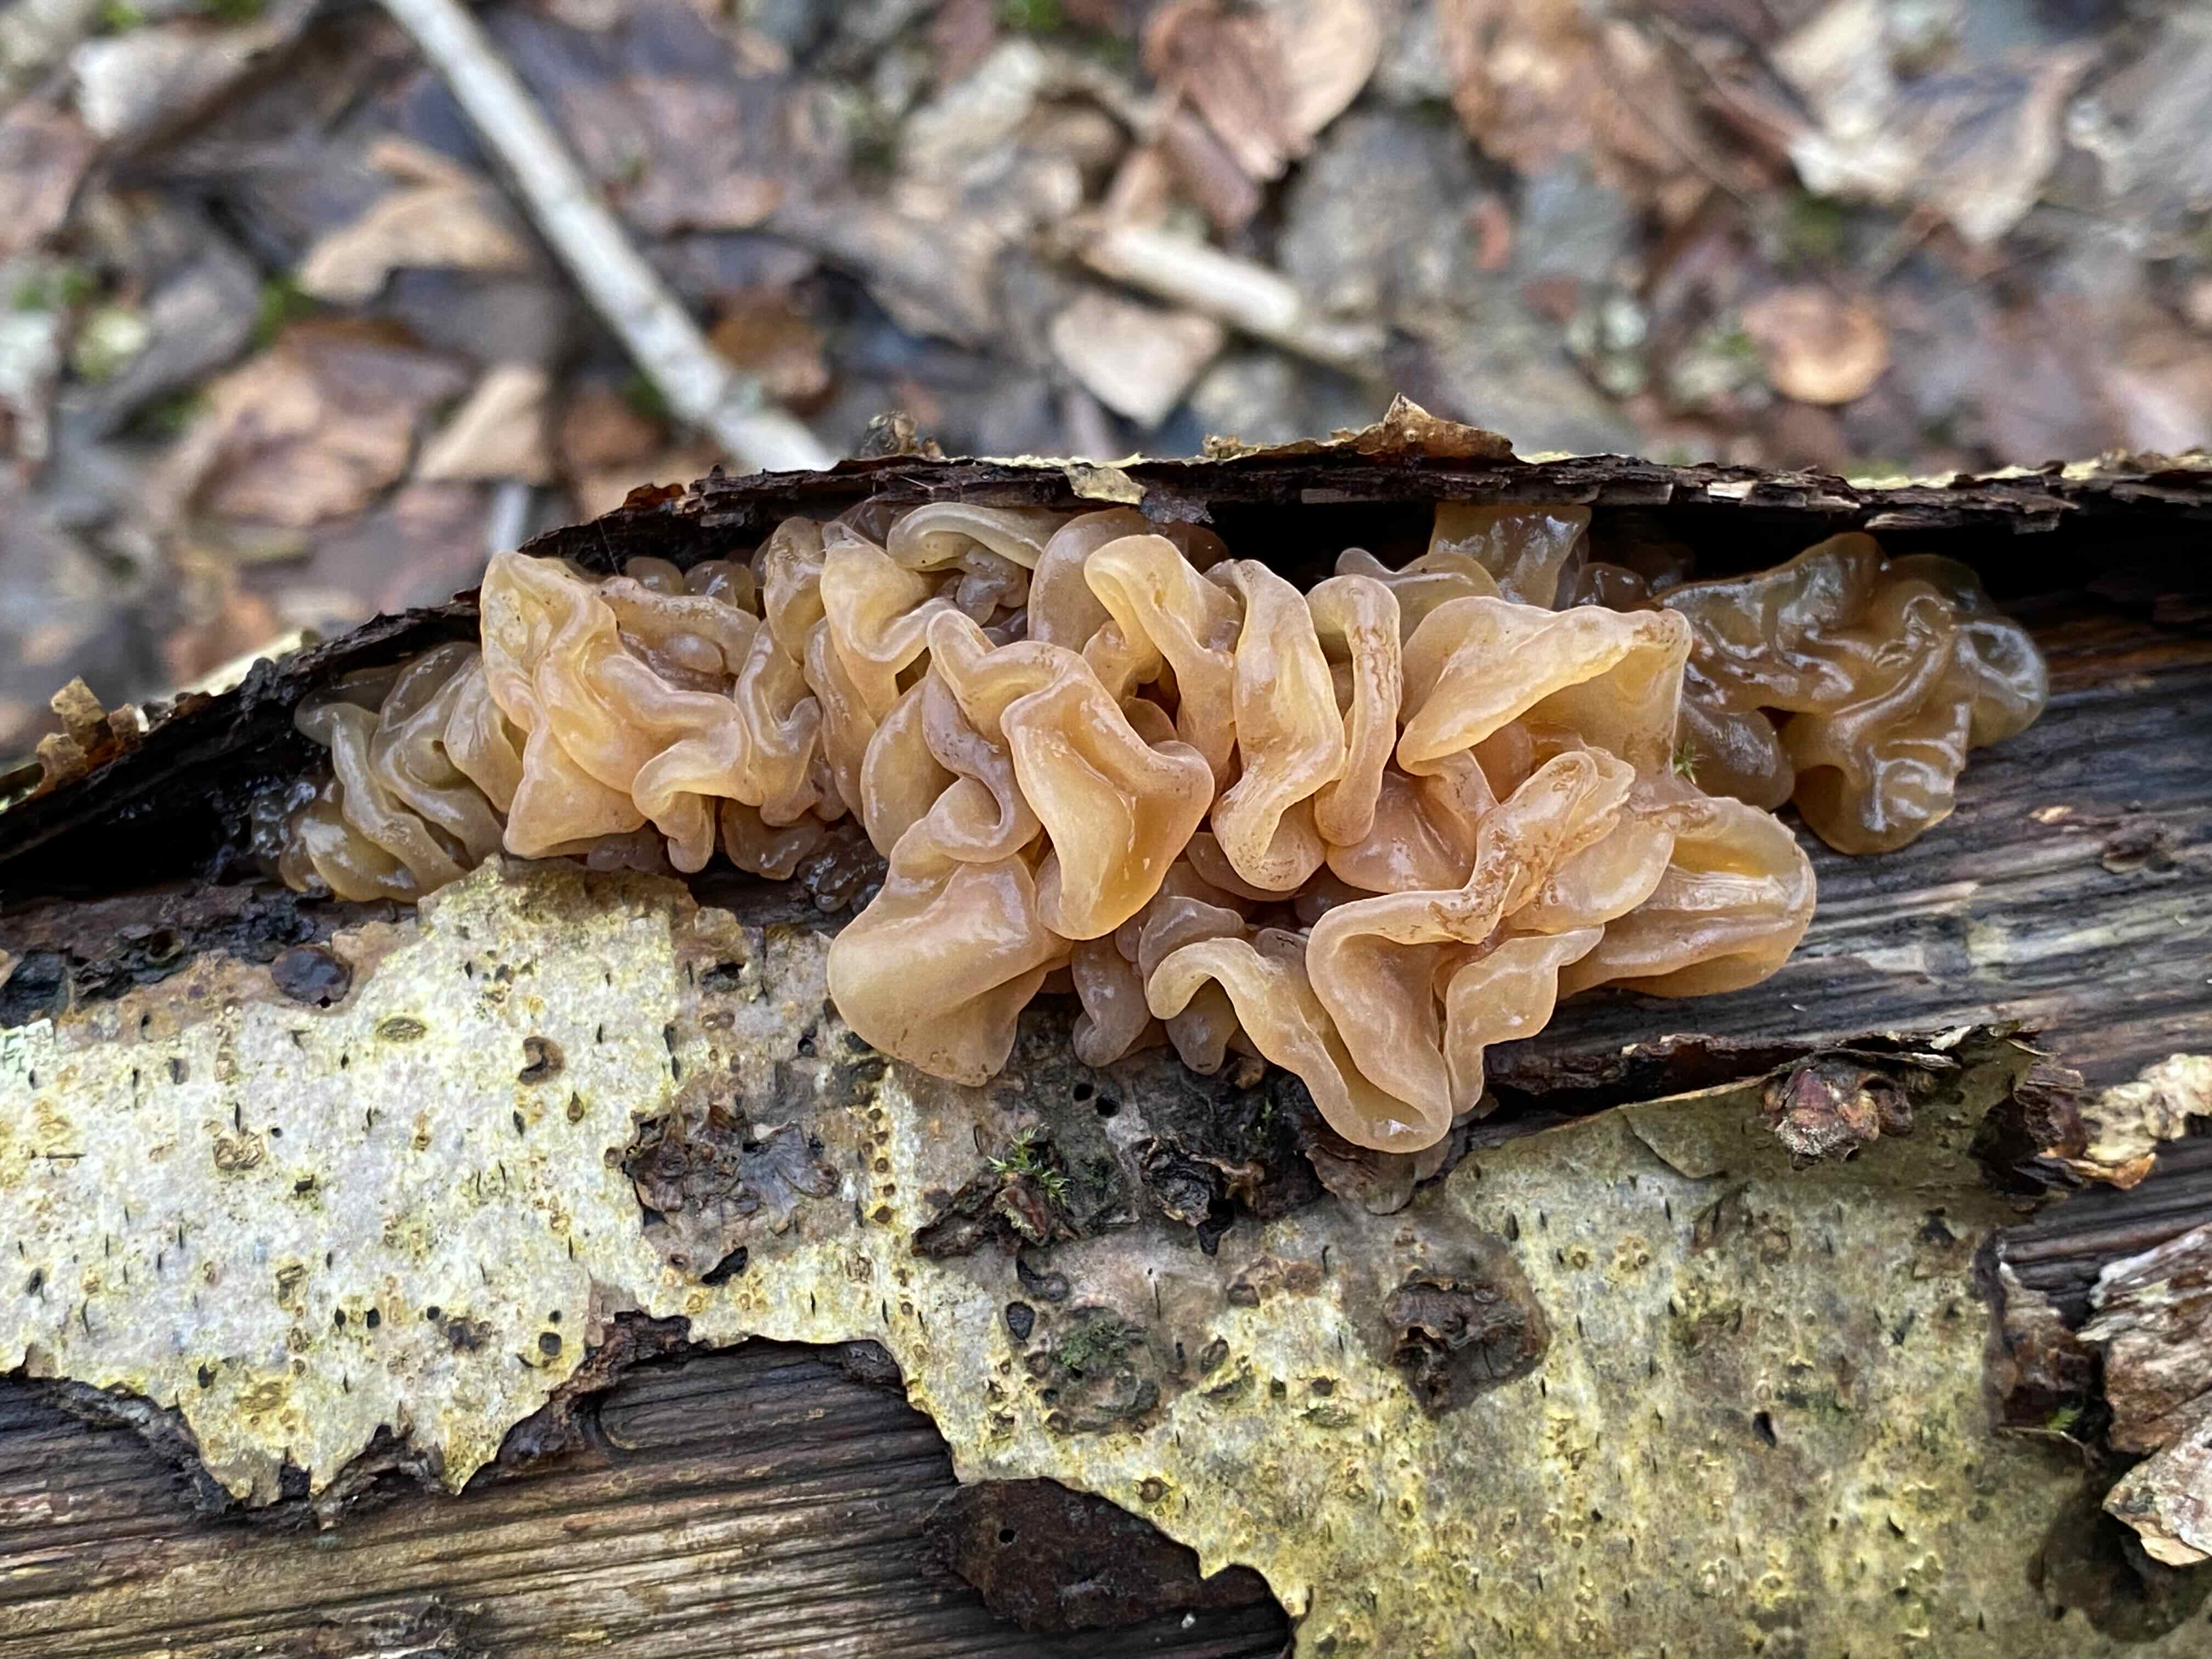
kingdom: Fungi
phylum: Basidiomycota
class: Tremellomycetes
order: Tremellales
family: Tremellaceae
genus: Phaeotremella
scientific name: Phaeotremella frondosa
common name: kæmpe-bævresvamp
